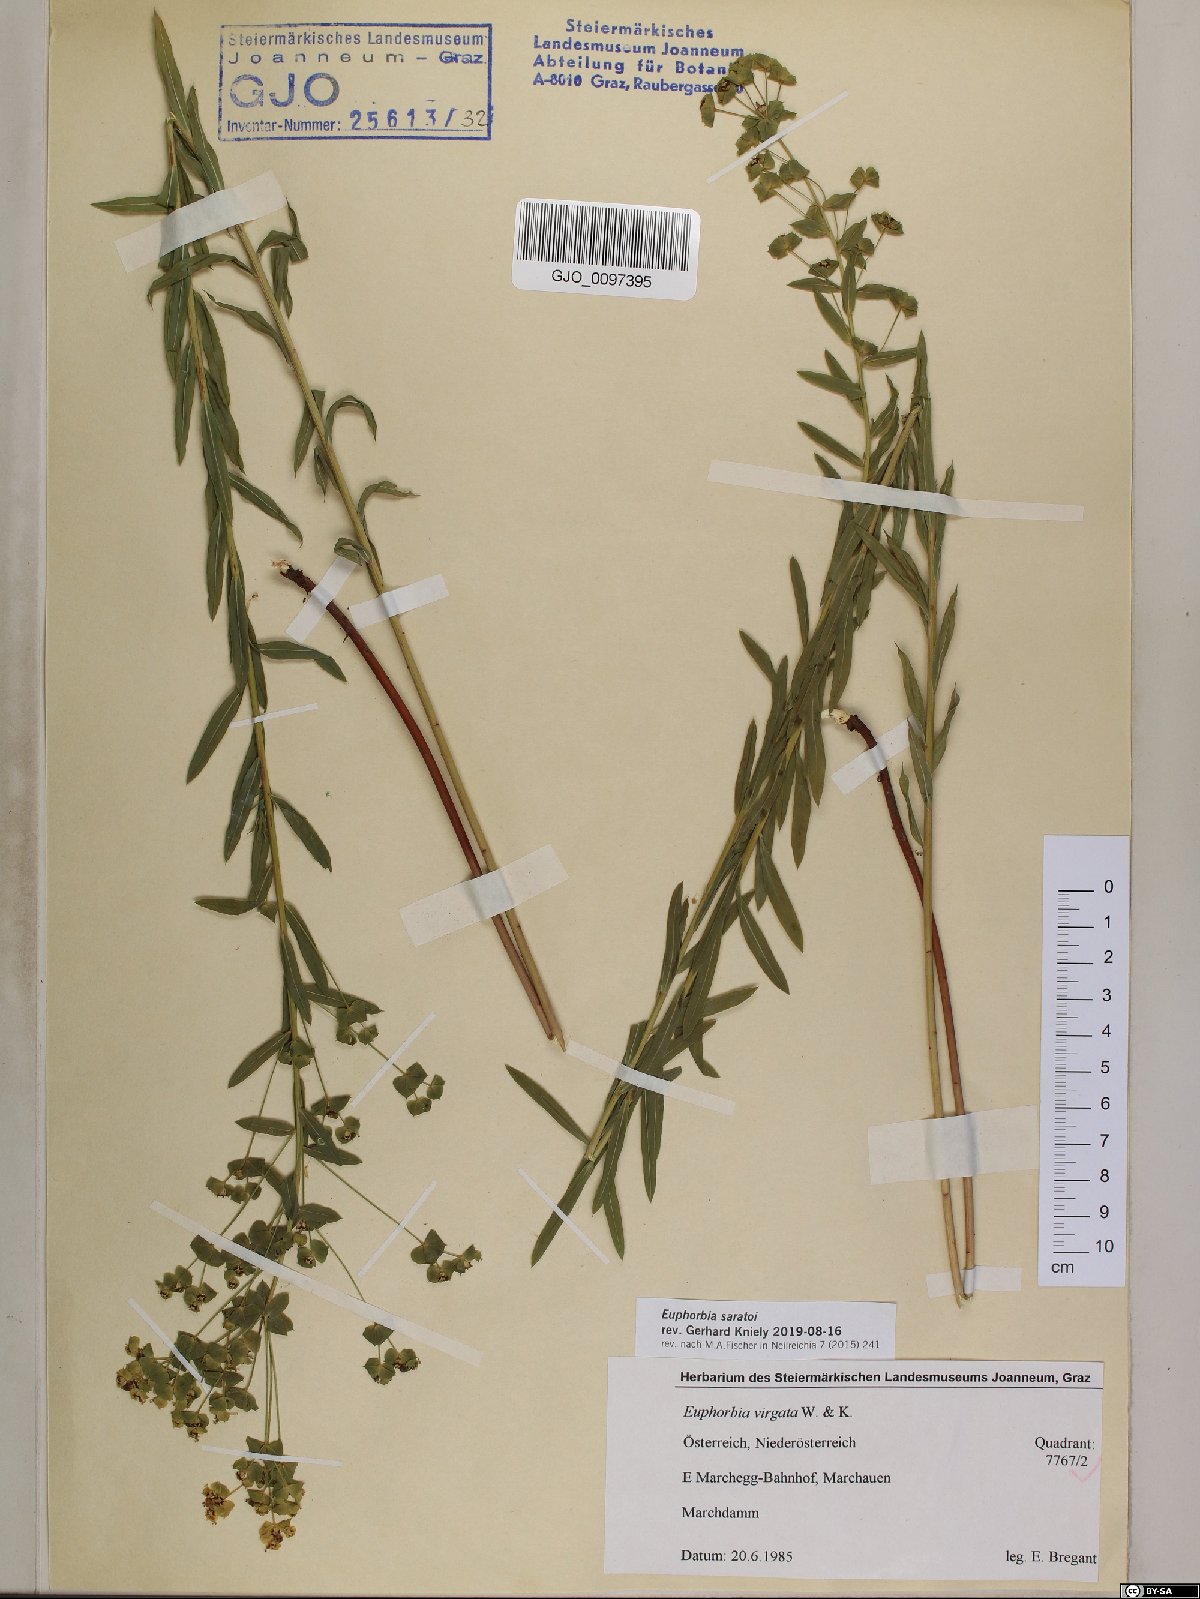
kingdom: Plantae
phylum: Tracheophyta
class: Magnoliopsida
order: Malpighiales
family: Euphorbiaceae
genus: Euphorbia
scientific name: Euphorbia saratoi
